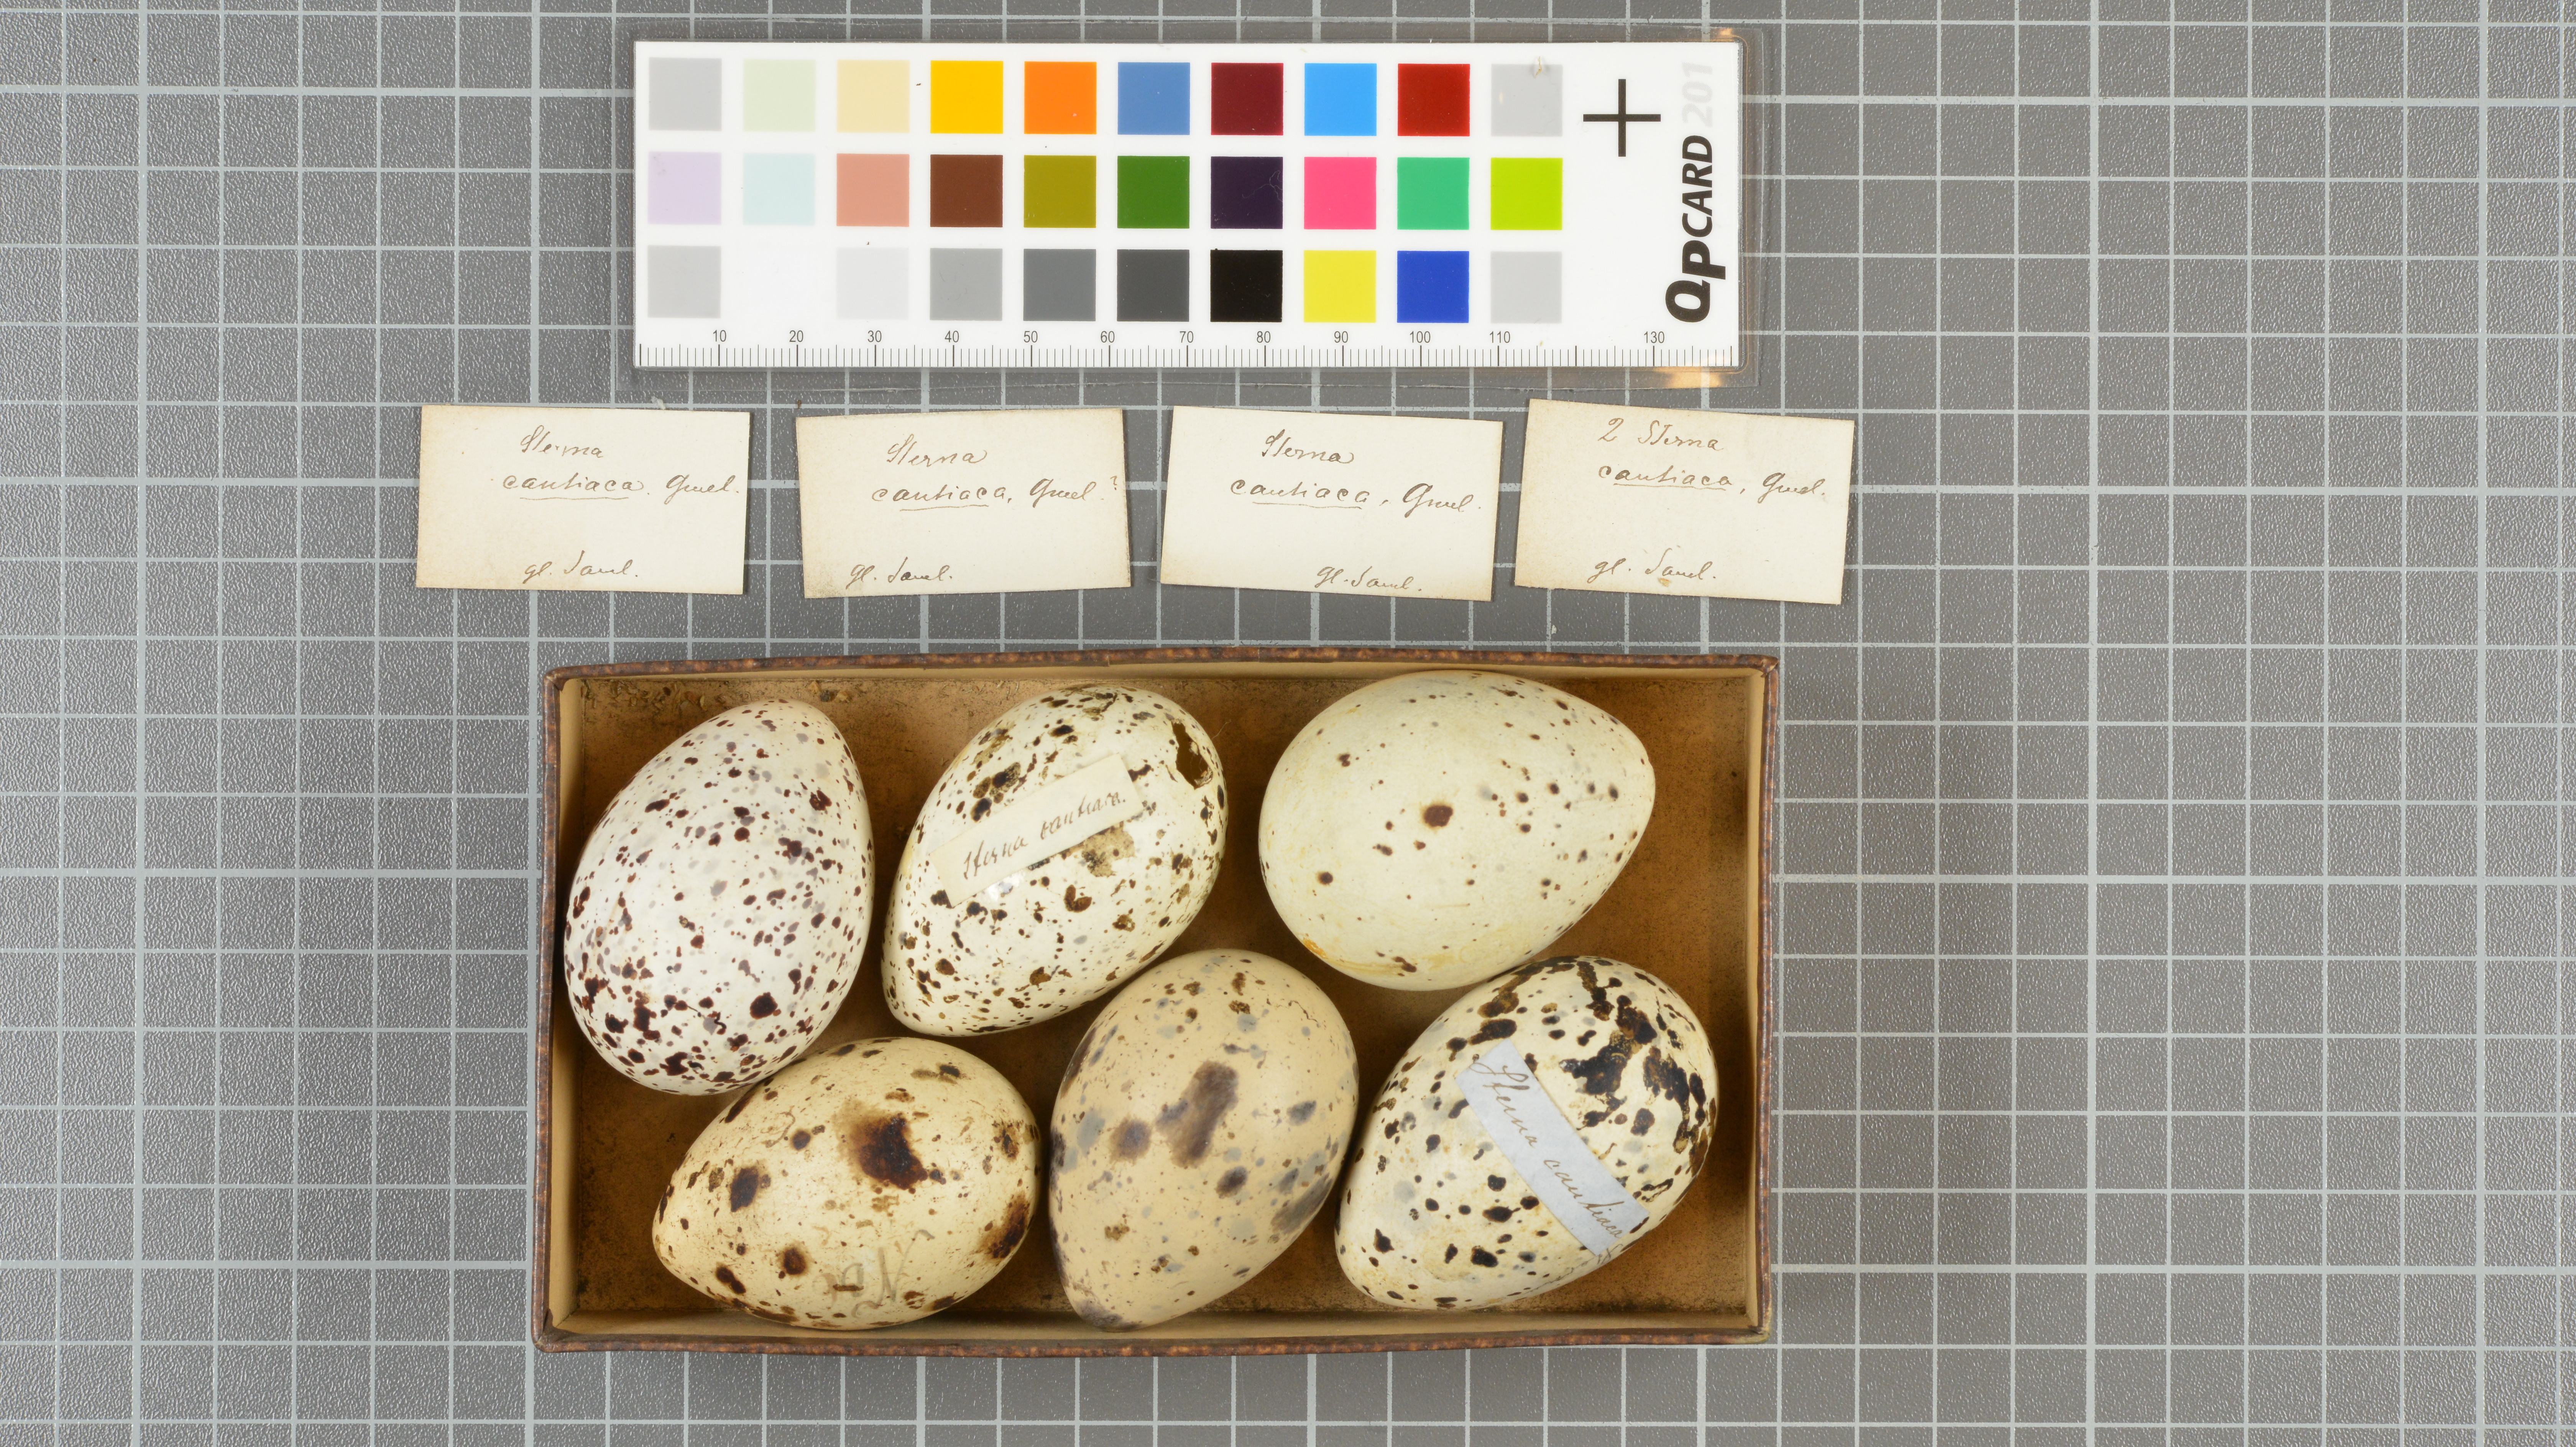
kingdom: Animalia
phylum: Chordata
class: Aves
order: Charadriiformes
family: Laridae
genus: Thalasseus
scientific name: Thalasseus sandvicensis
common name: Sandwich tern
